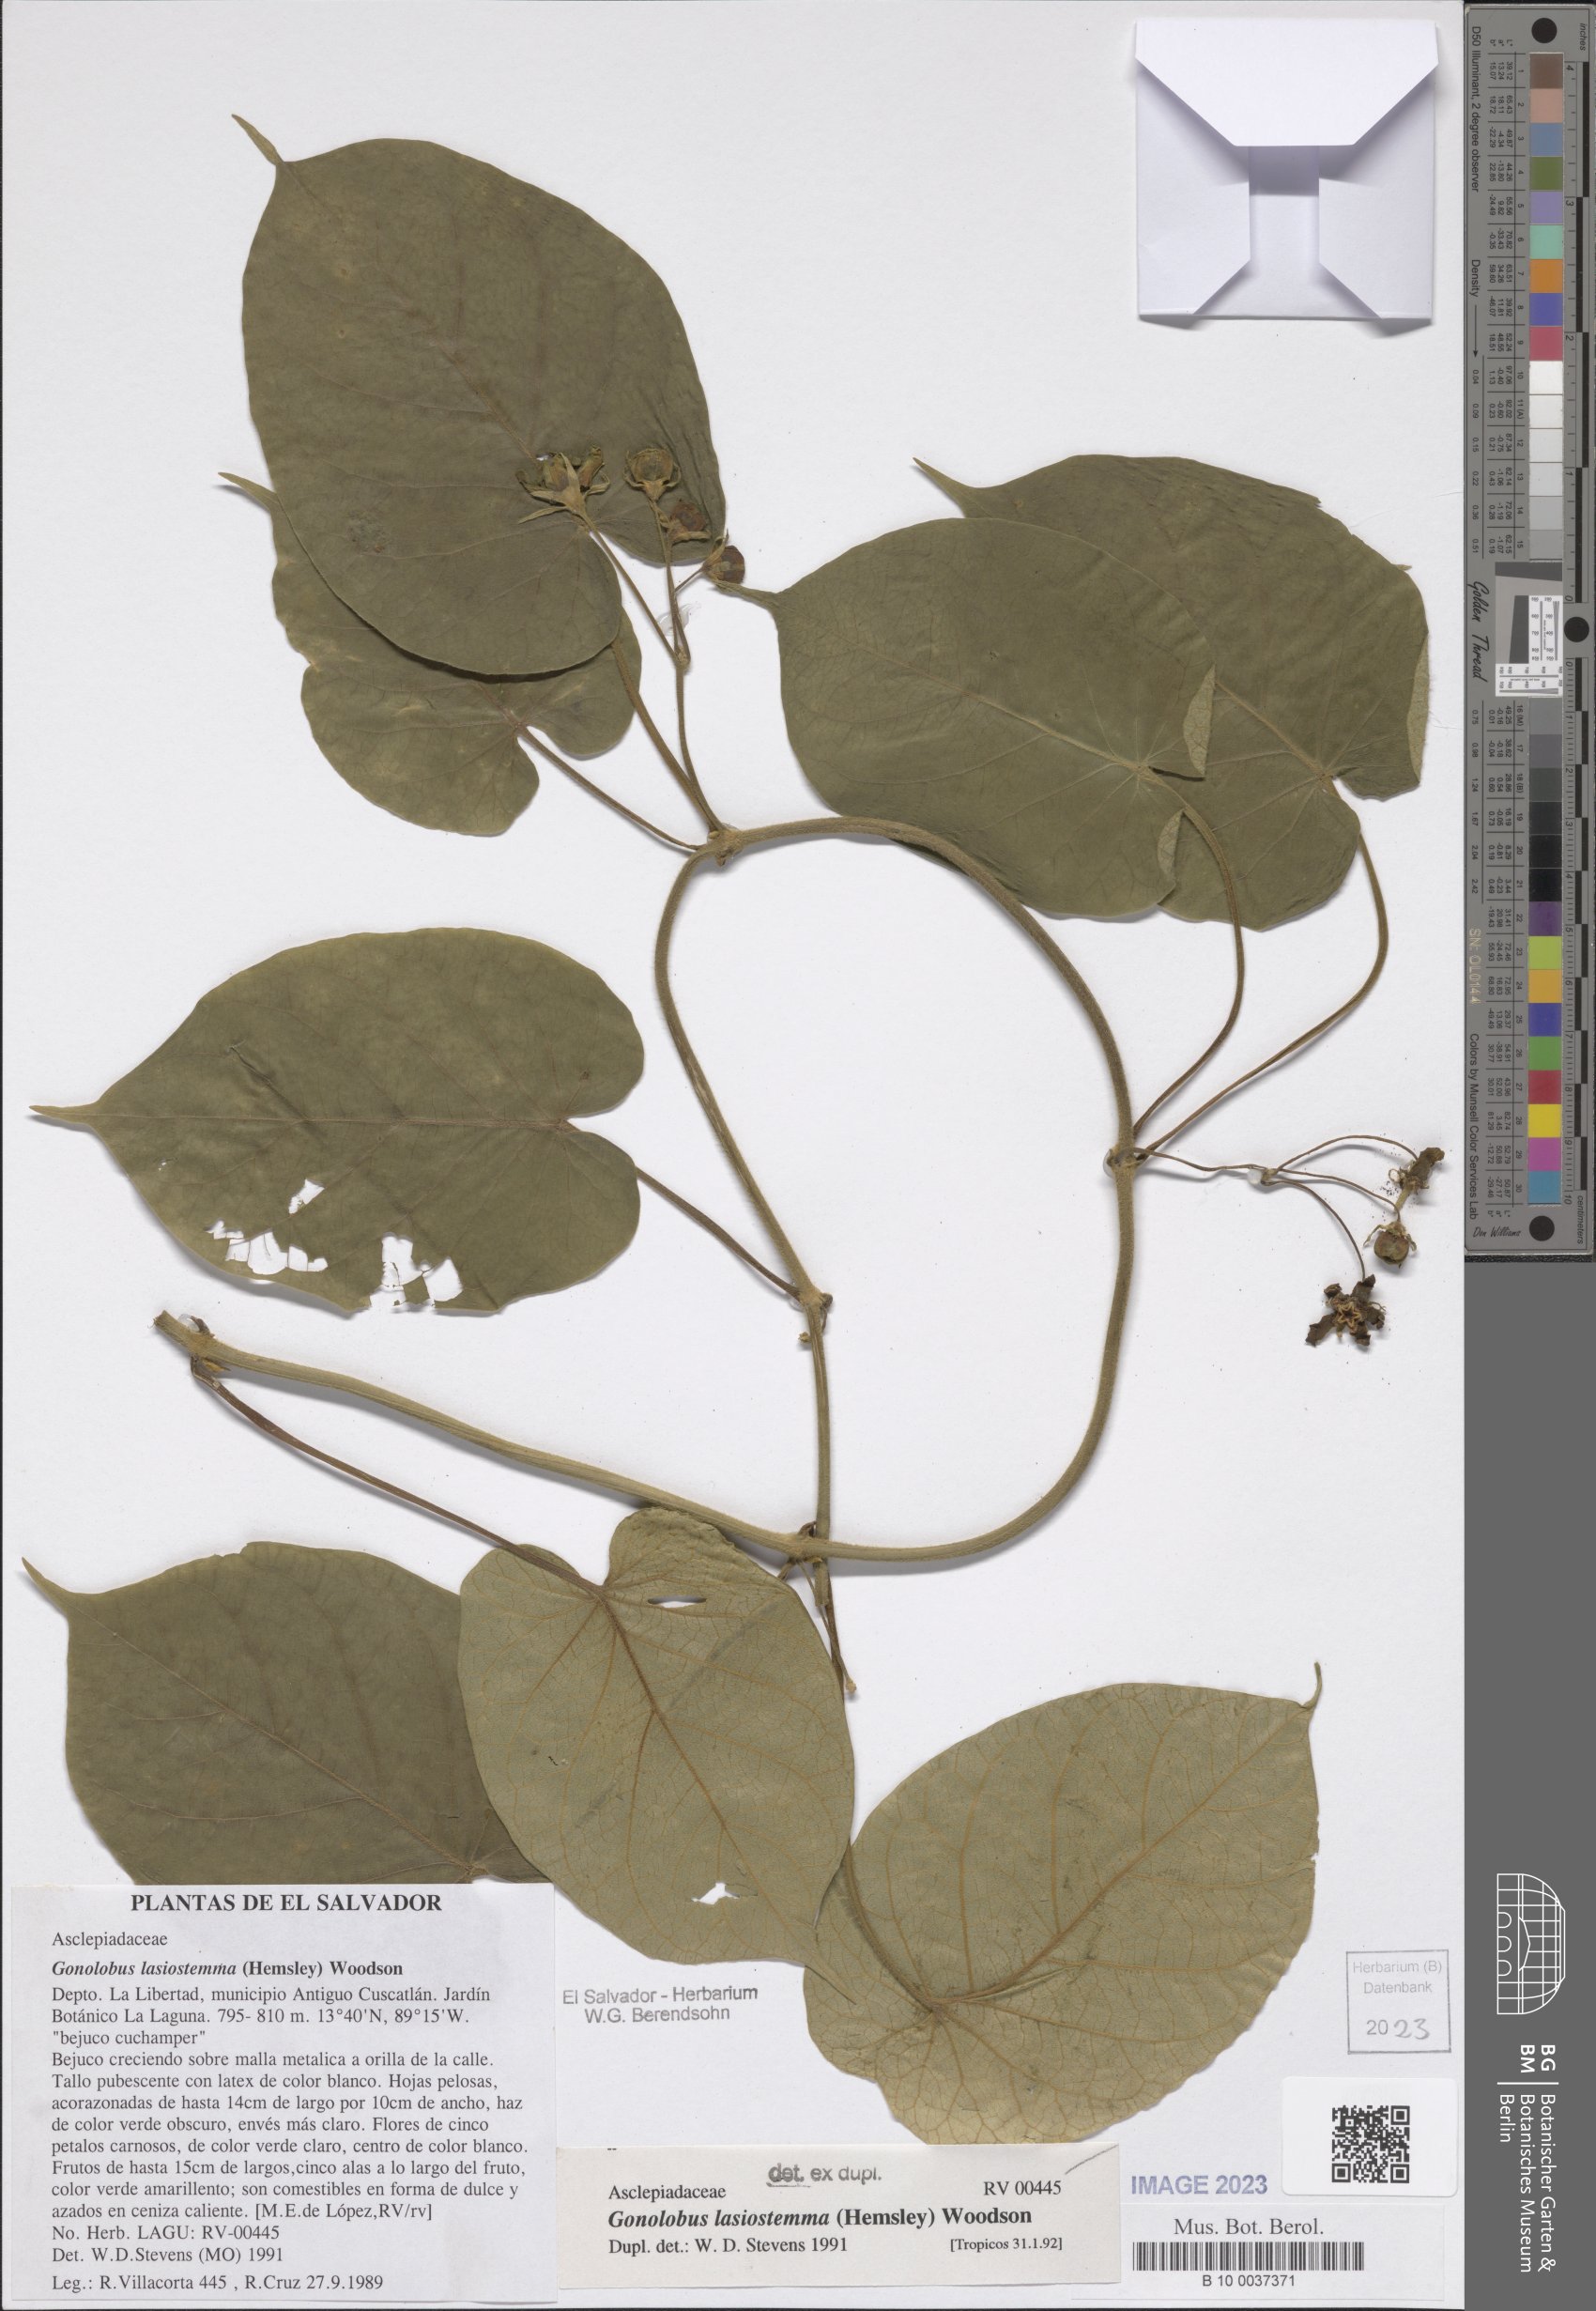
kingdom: Plantae
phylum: Tracheophyta
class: Magnoliopsida
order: Gentianales
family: Apocynaceae
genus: Gonolobus
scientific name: Gonolobus lasiostemma
